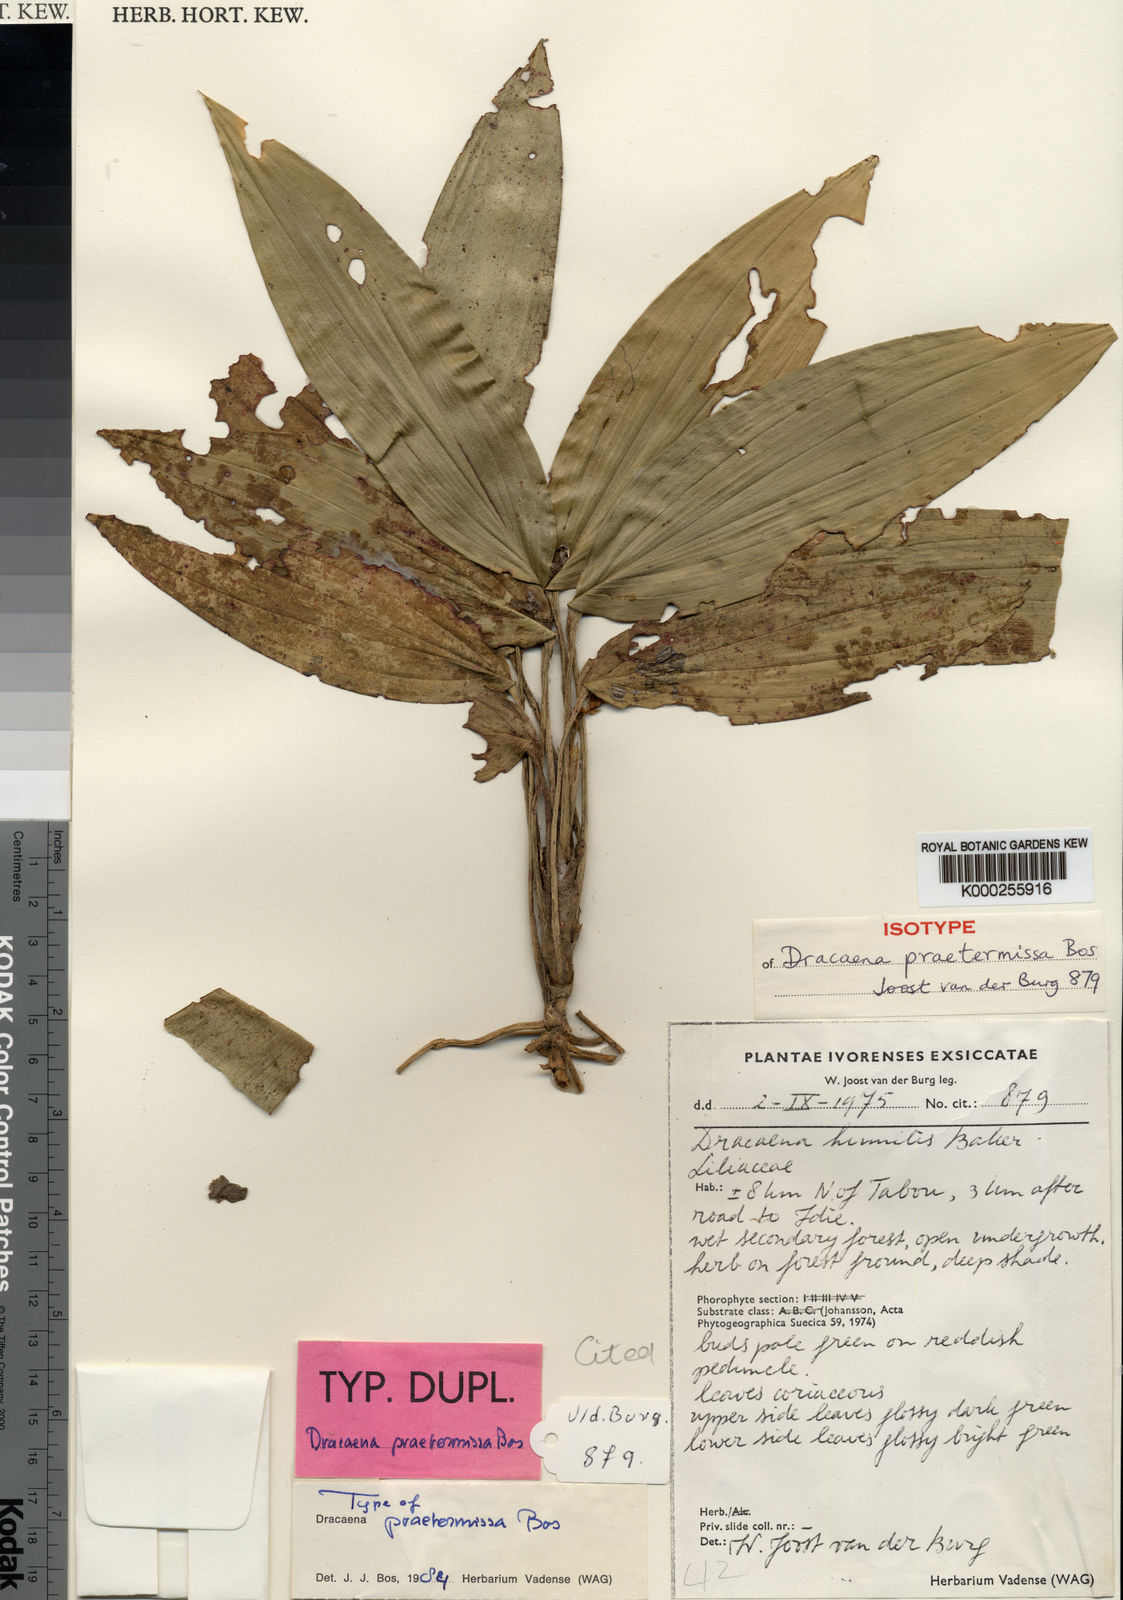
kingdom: Plantae
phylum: Tracheophyta
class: Liliopsida
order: Asparagales
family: Asparagaceae
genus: Dracaena
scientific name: Dracaena praetermissa
